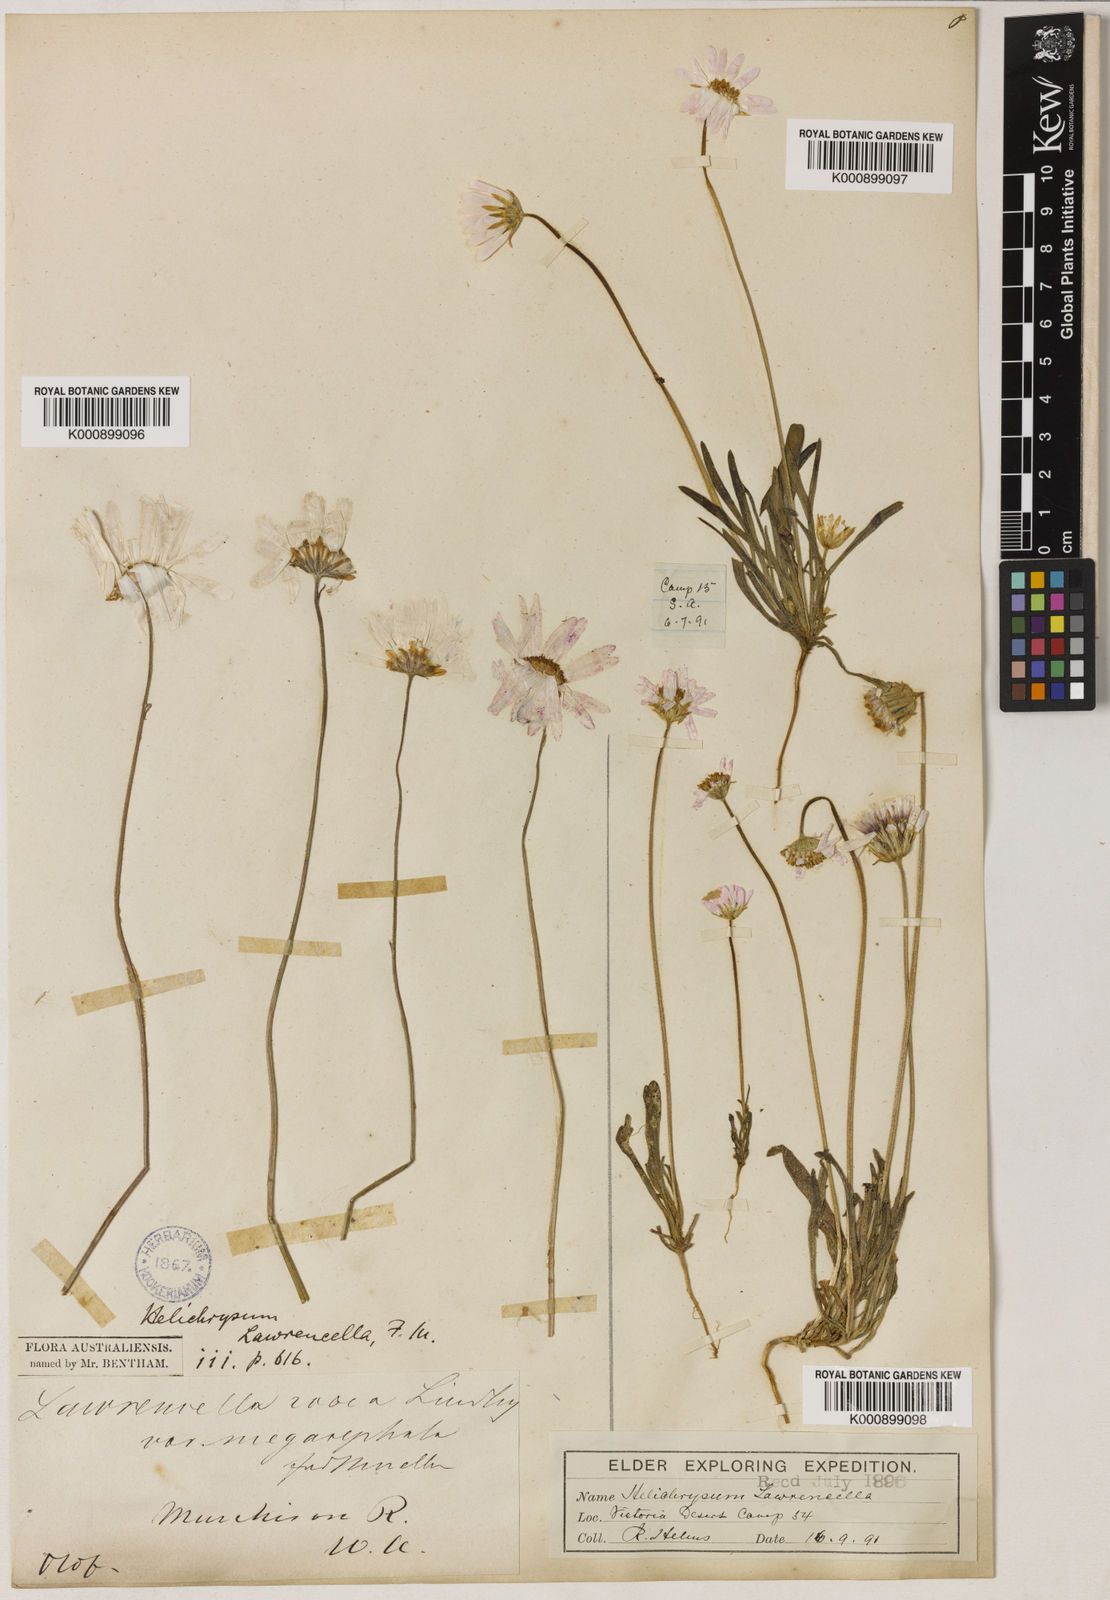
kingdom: Plantae
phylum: Tracheophyta
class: Magnoliopsida
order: Asterales
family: Asteraceae
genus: Lawrencella
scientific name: Lawrencella davenportii
